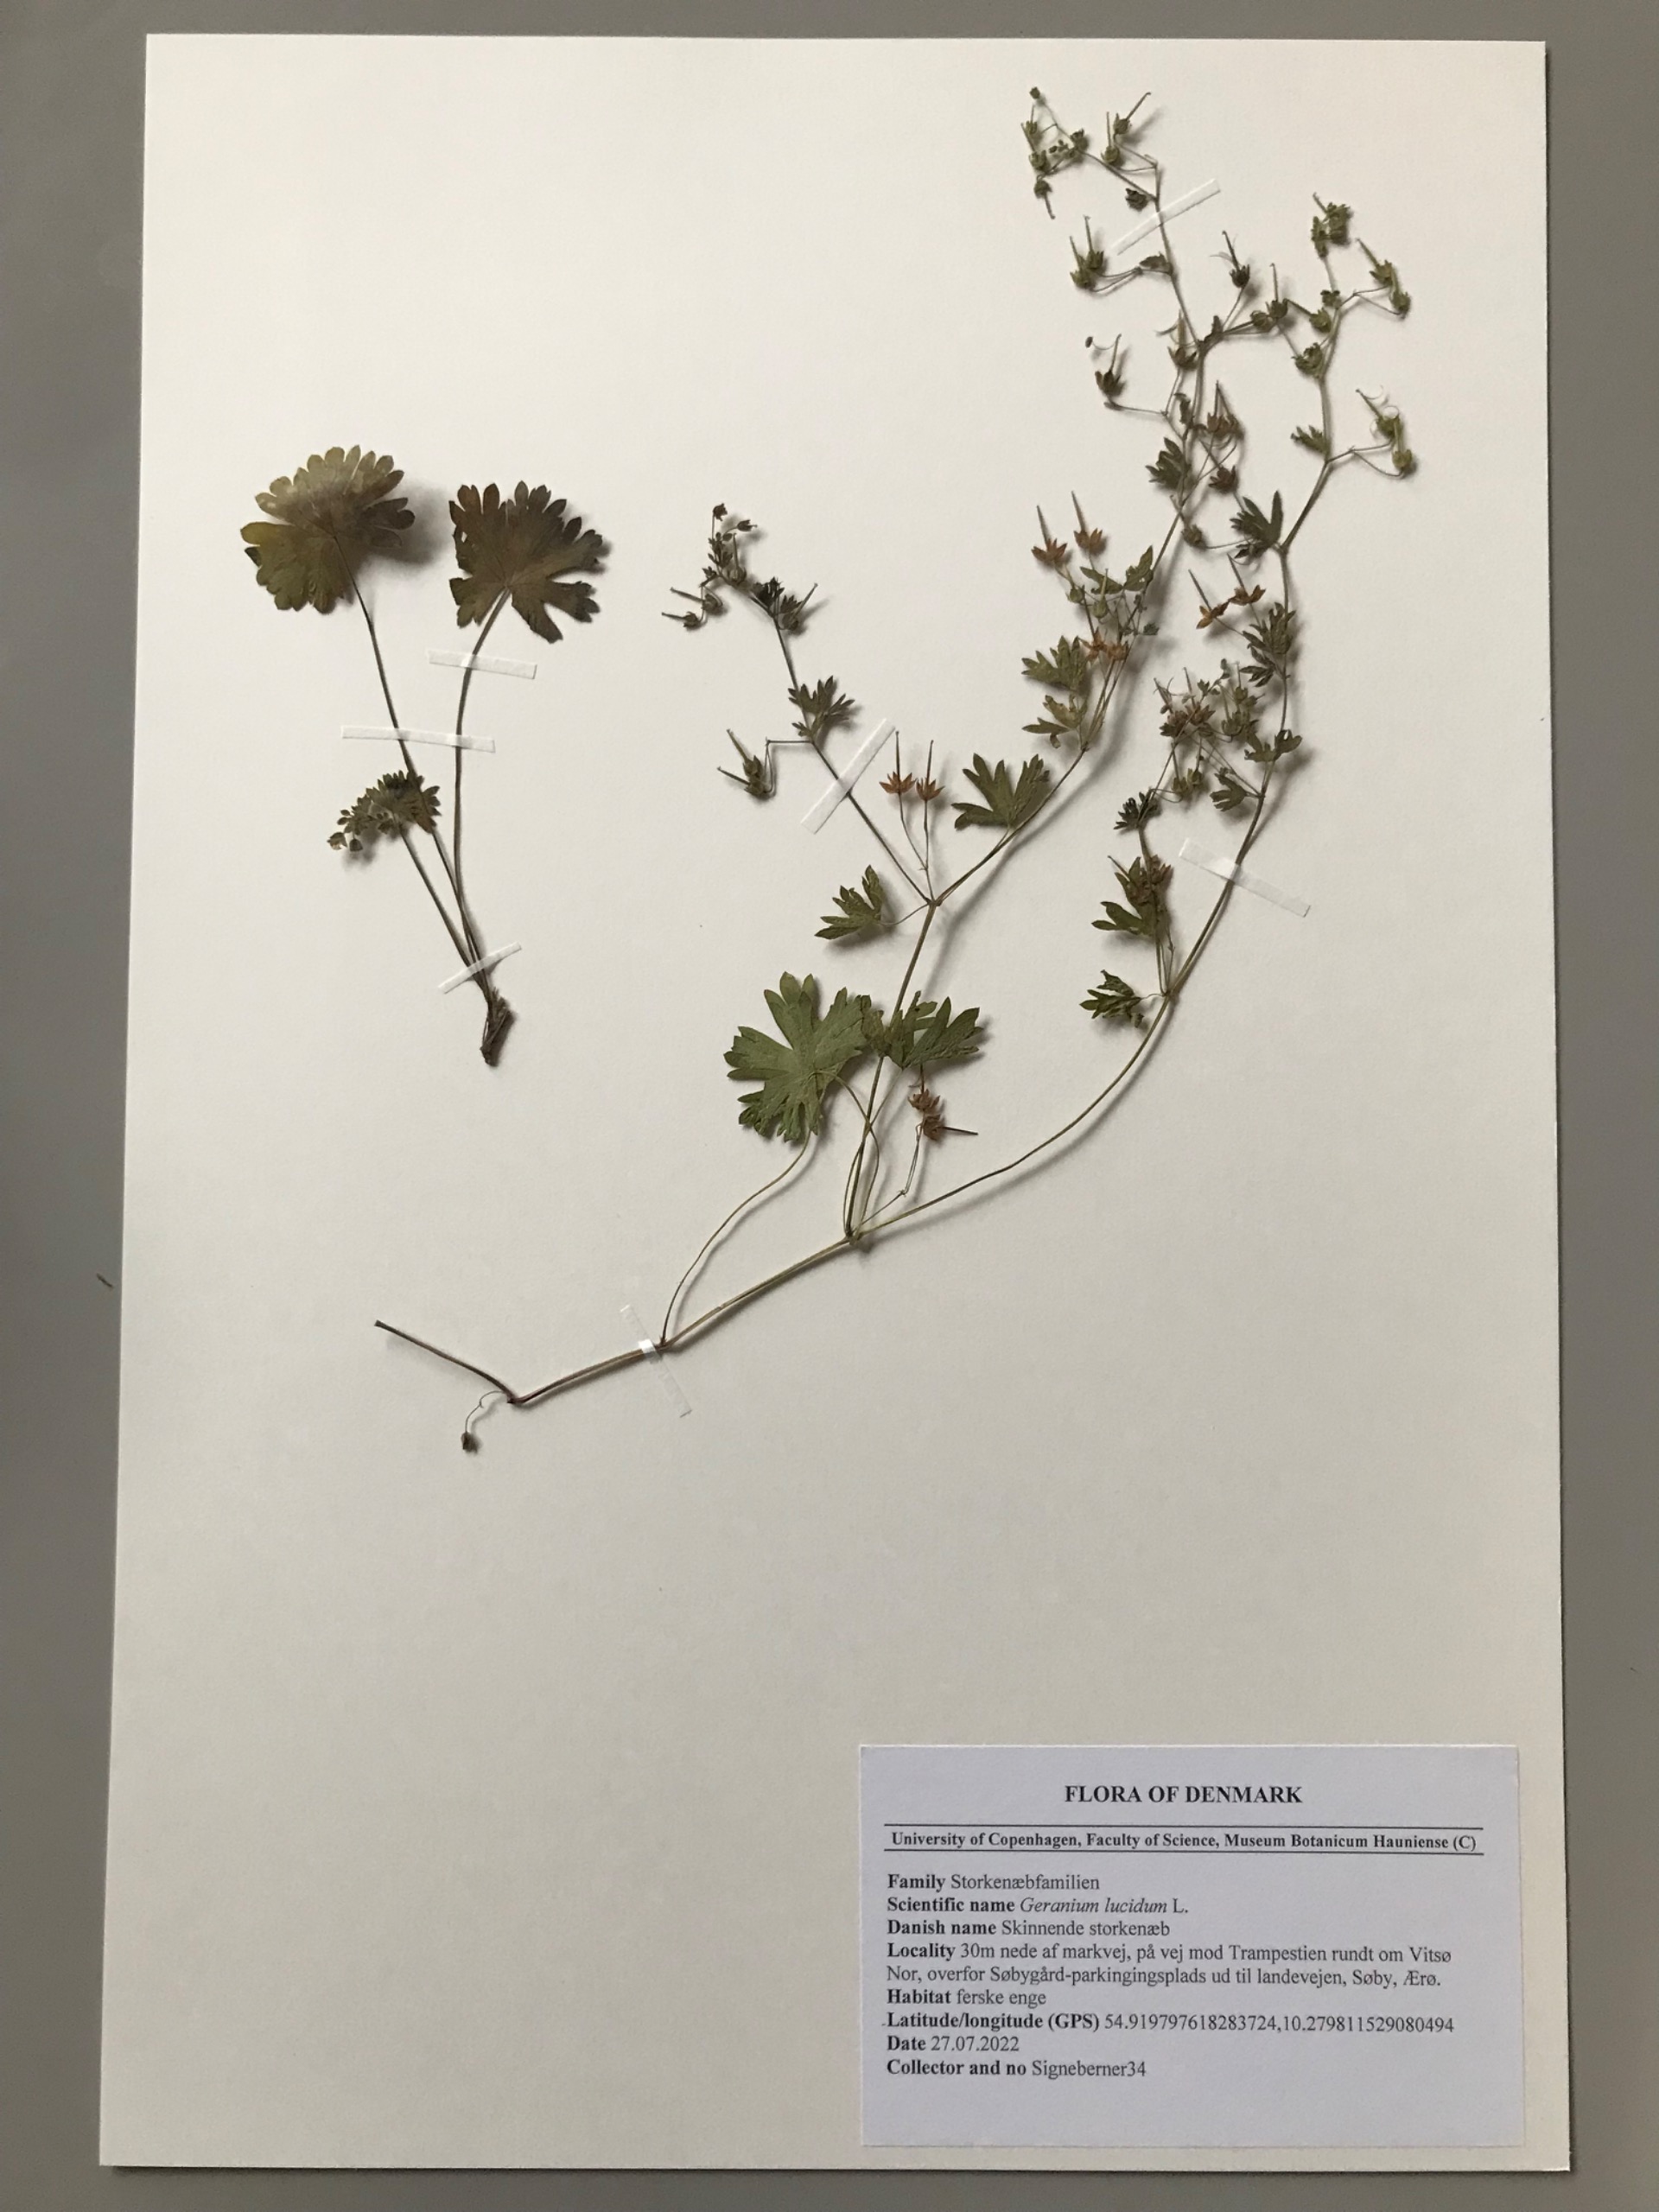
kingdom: Plantae
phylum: Tracheophyta
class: Magnoliopsida
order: Geraniales
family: Geraniaceae
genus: Geranium
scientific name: Geranium
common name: Storkenæbslægten
